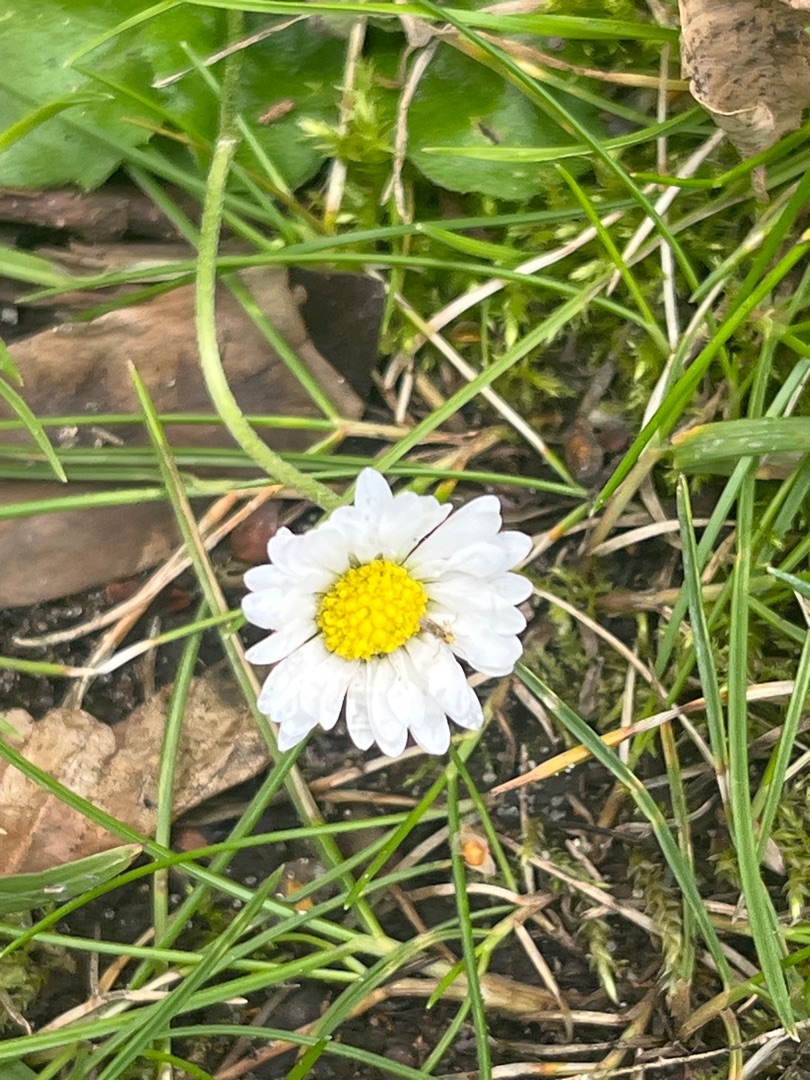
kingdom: Plantae
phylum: Tracheophyta
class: Magnoliopsida
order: Asterales
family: Asteraceae
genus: Bellis
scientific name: Bellis perennis
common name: Tusindfryd
